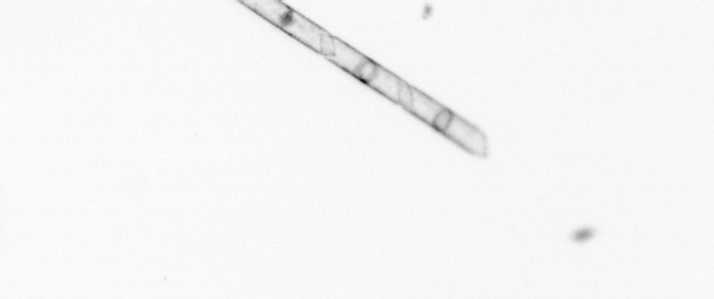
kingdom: Chromista
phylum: Ochrophyta
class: Bacillariophyceae
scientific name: Bacillariophyceae
